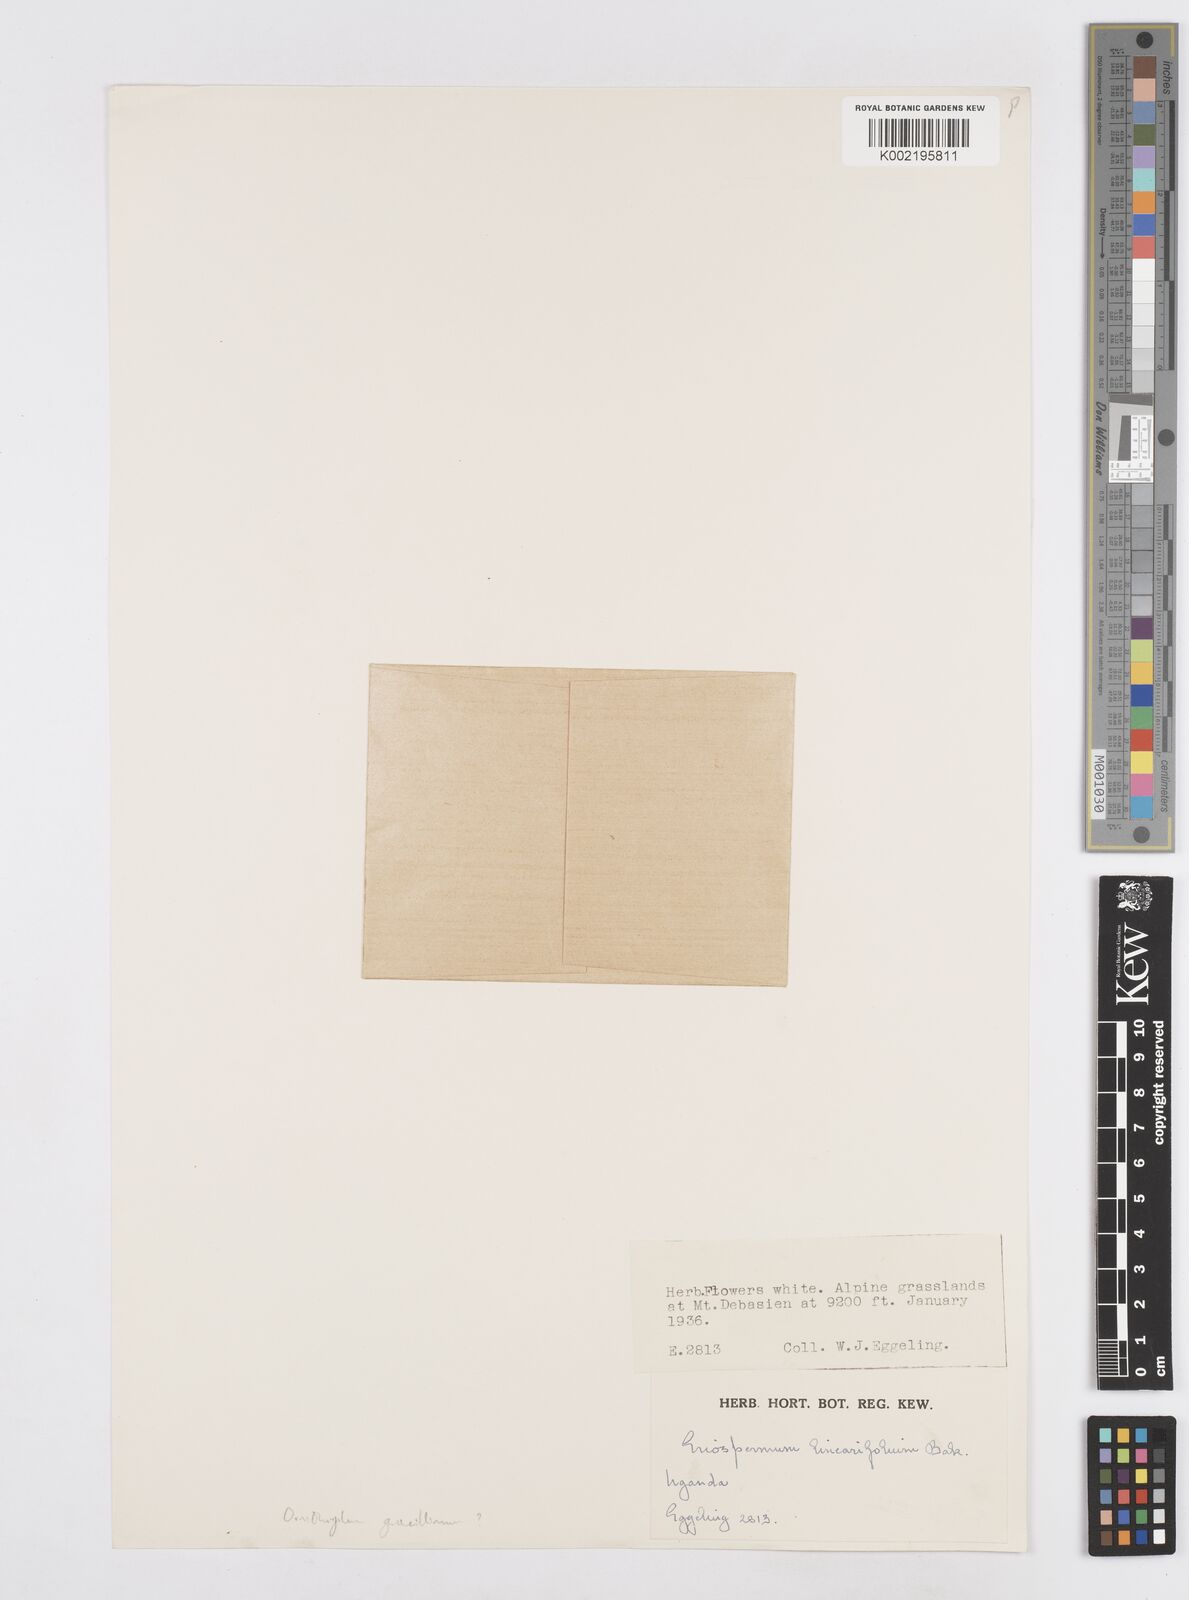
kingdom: Plantae
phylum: Tracheophyta
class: Liliopsida
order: Asparagales
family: Asparagaceae
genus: Ornithogalum
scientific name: Ornithogalum gracillimum
